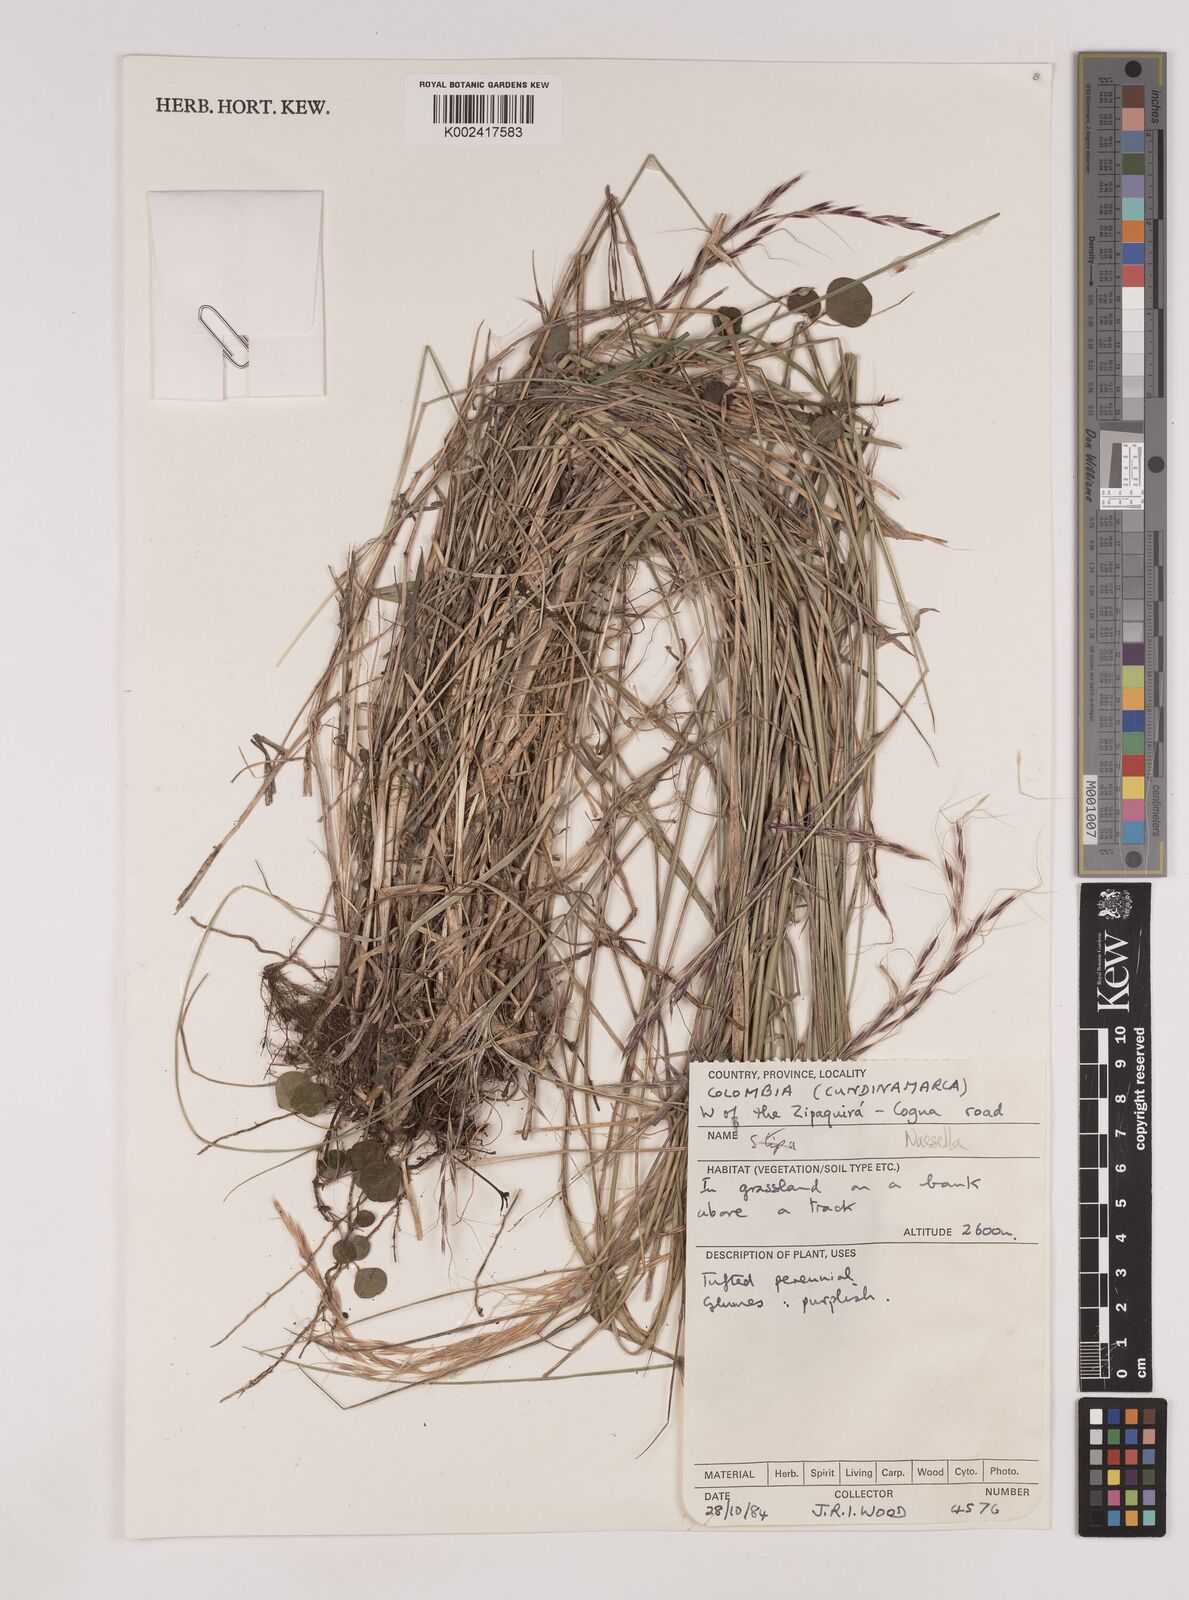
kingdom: Plantae
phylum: Tracheophyta
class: Liliopsida
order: Poales
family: Poaceae
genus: Nassella
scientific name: Nassella
